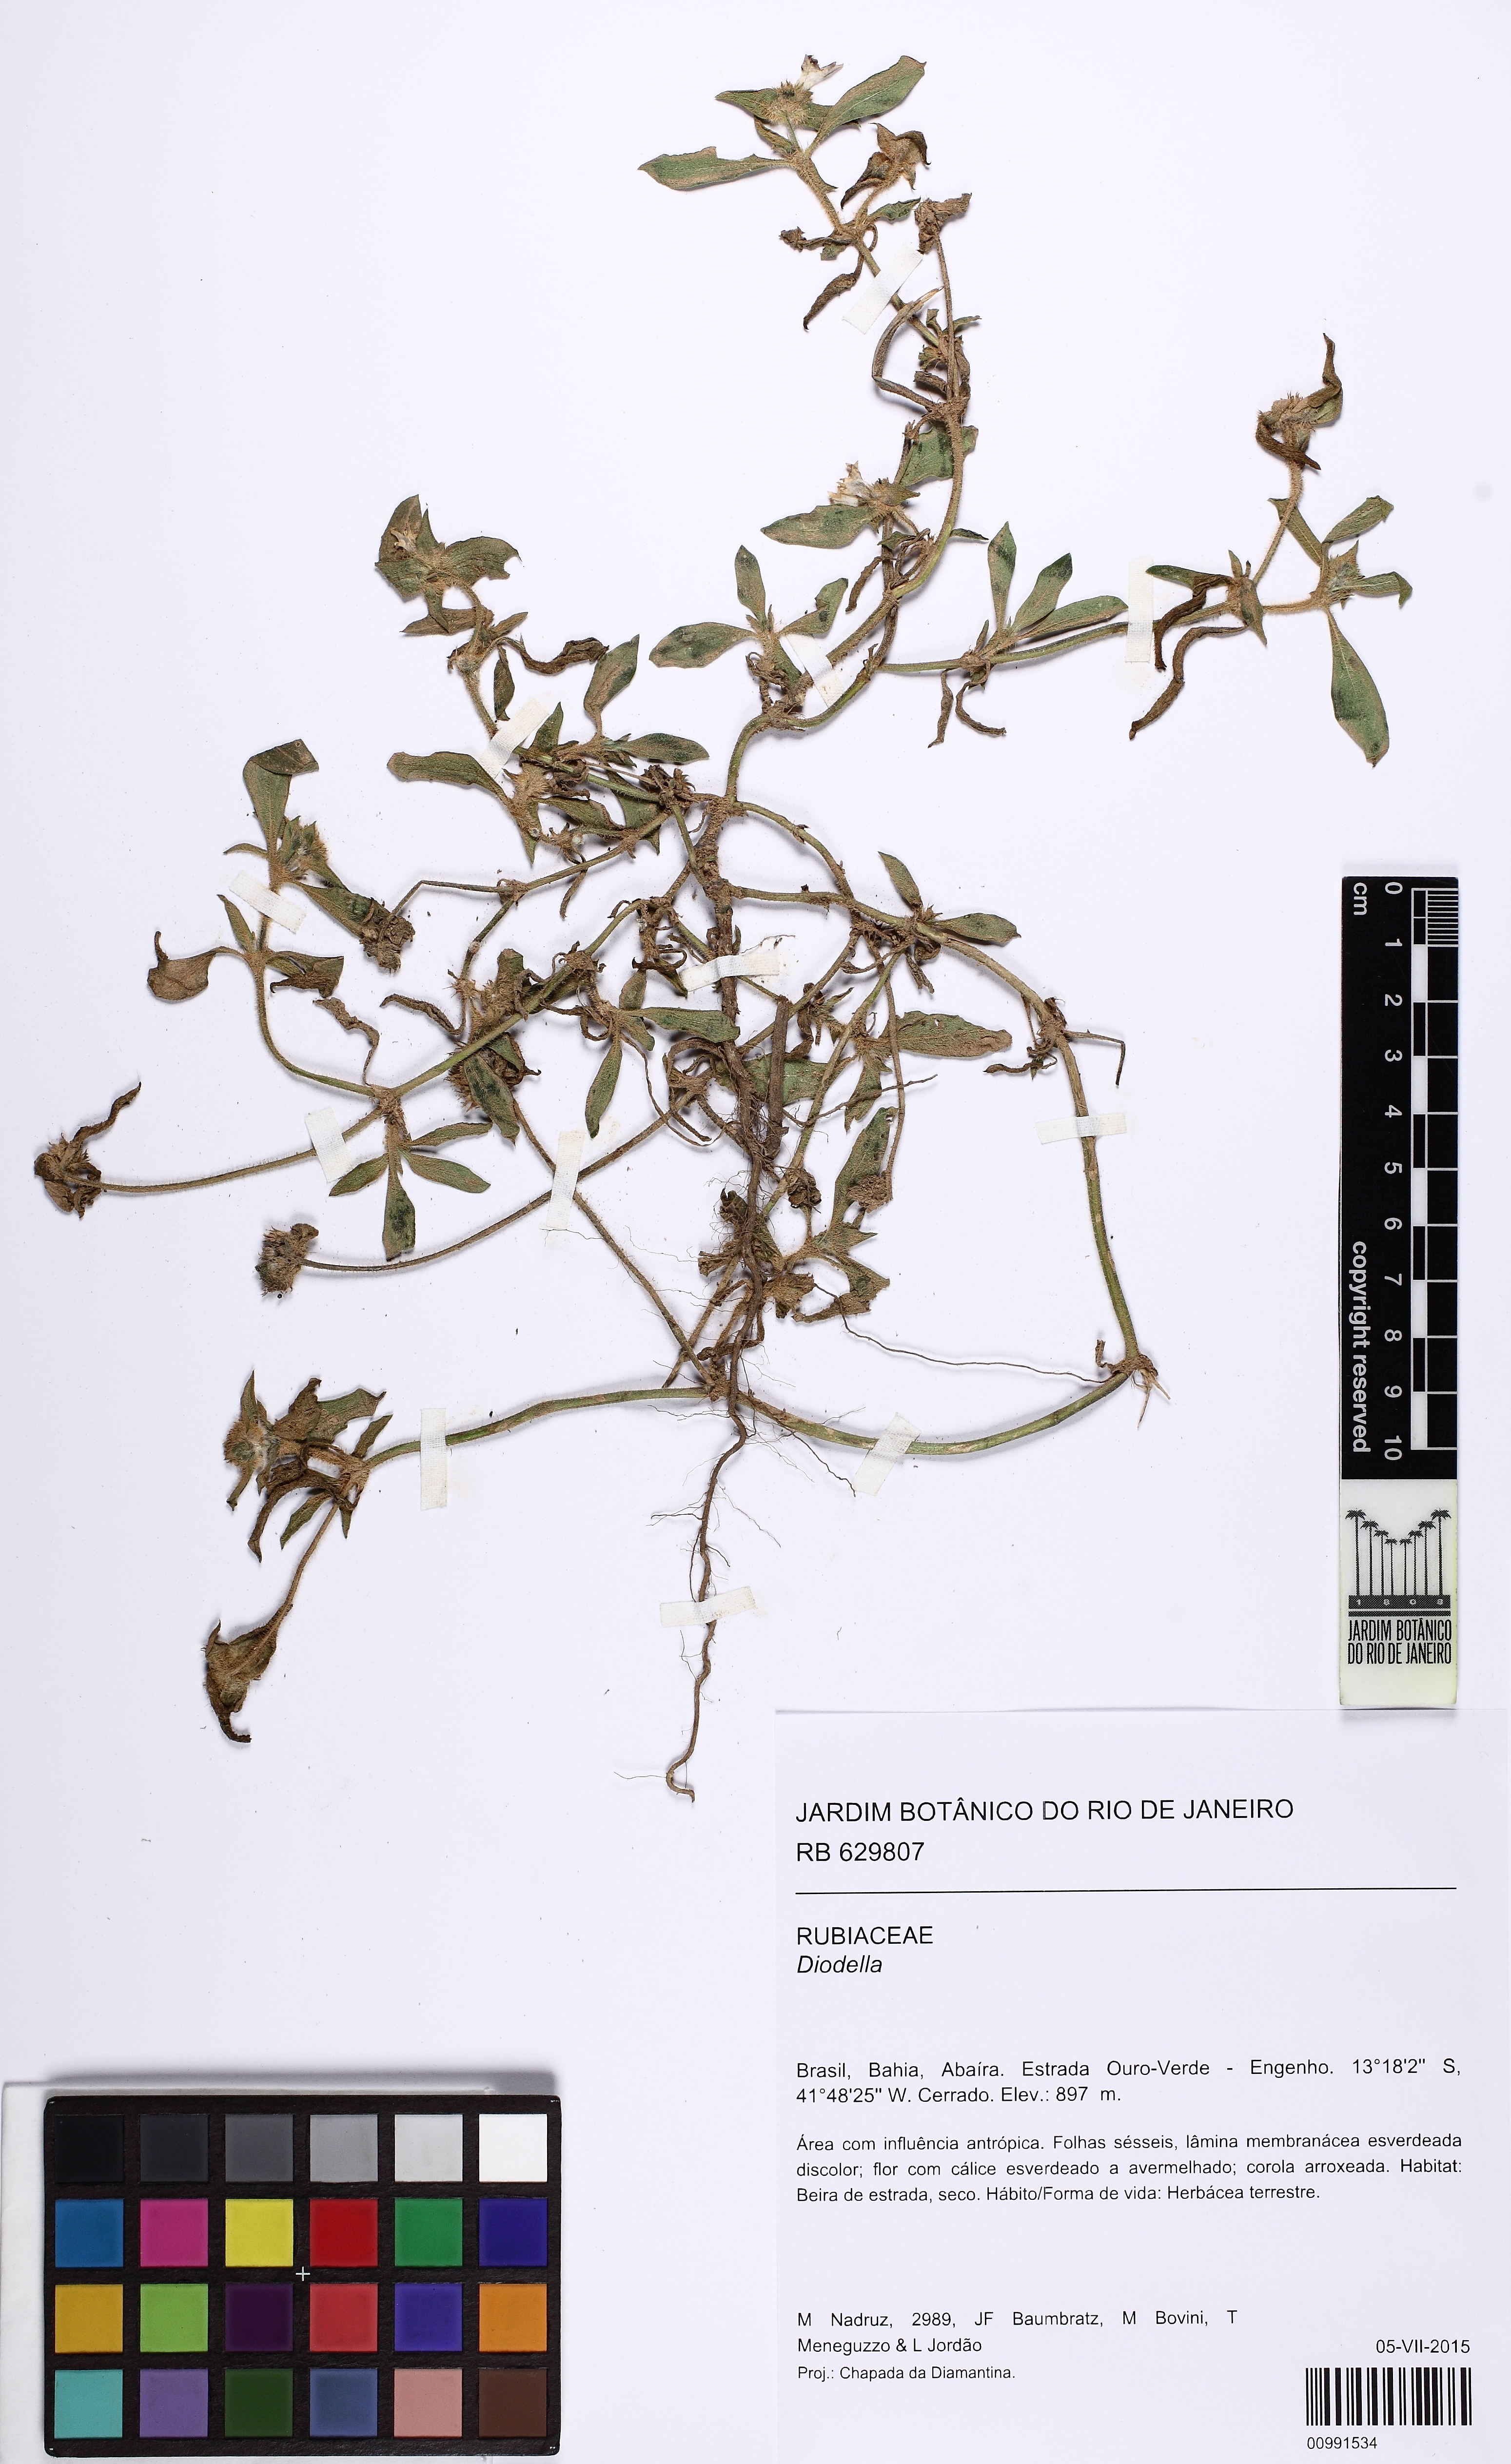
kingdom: Plantae
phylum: Tracheophyta
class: Magnoliopsida
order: Gentianales
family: Rubiaceae
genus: Richardia
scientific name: Richardia scabra
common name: Rough mexican clover
